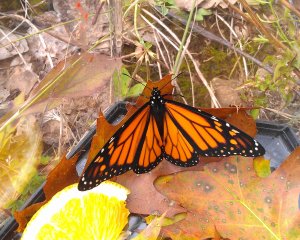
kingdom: Animalia
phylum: Arthropoda
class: Insecta
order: Lepidoptera
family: Nymphalidae
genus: Danaus
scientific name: Danaus plexippus
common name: Monarch
